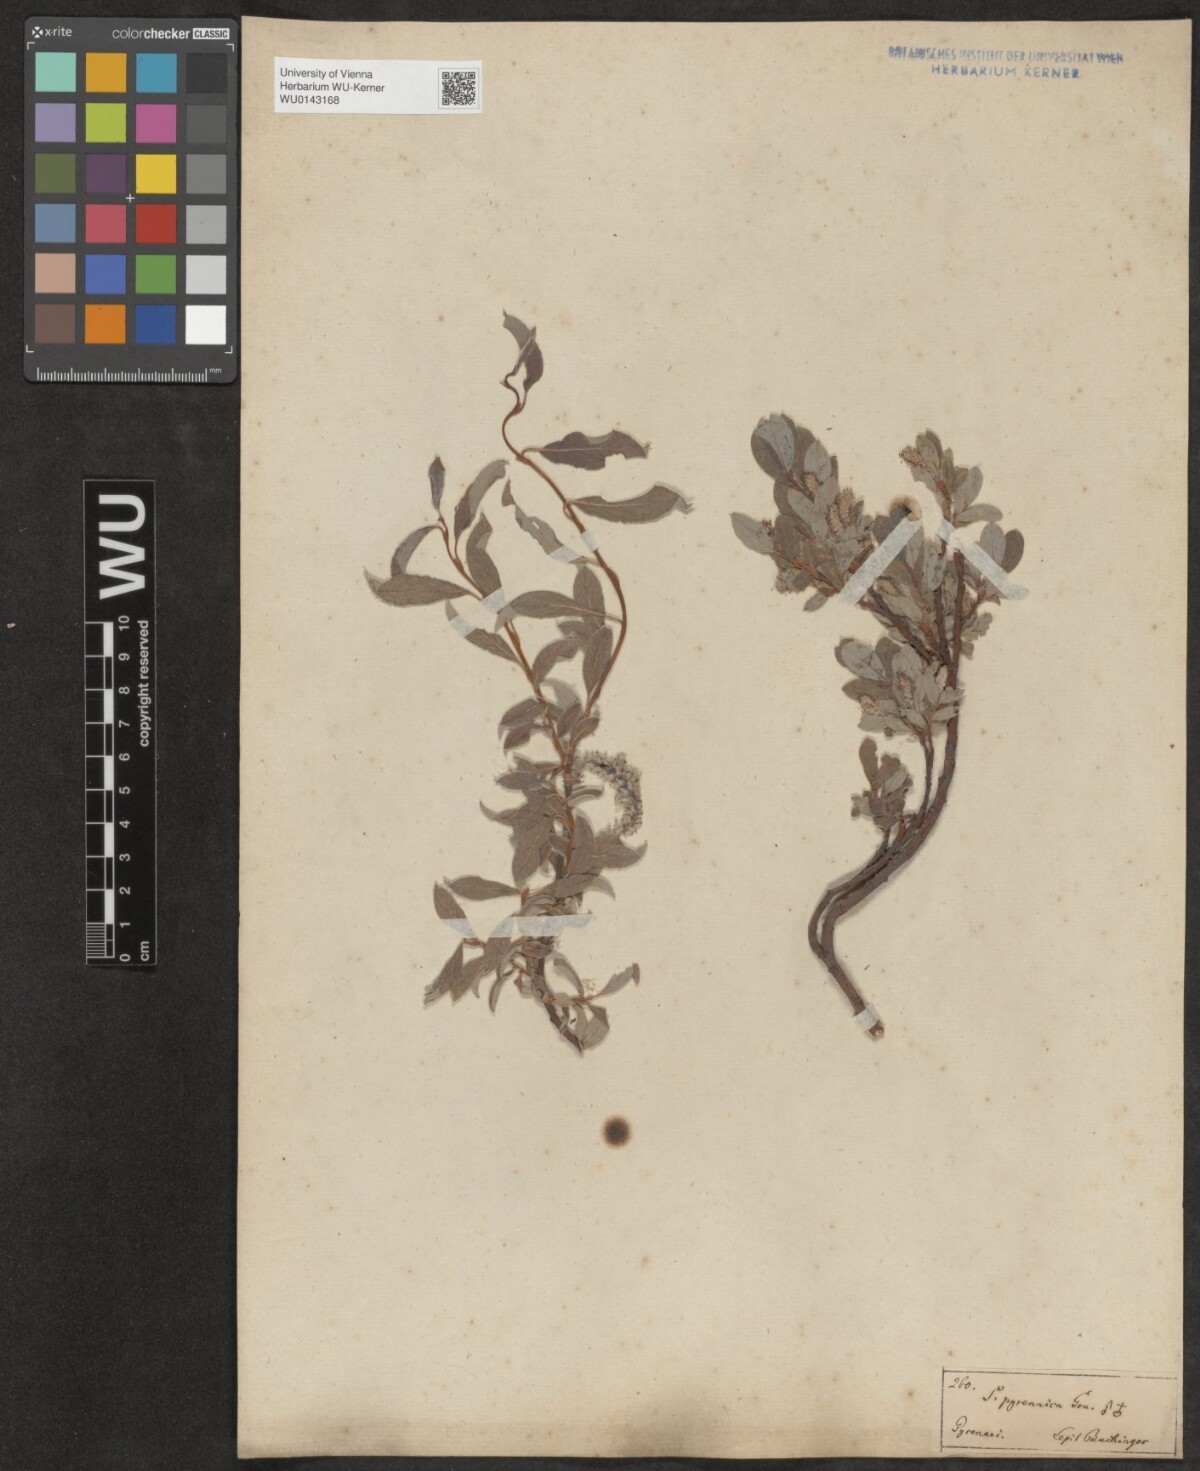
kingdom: Plantae
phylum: Tracheophyta
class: Magnoliopsida
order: Malpighiales
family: Salicaceae
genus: Salix
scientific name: Salix pyrenaica
